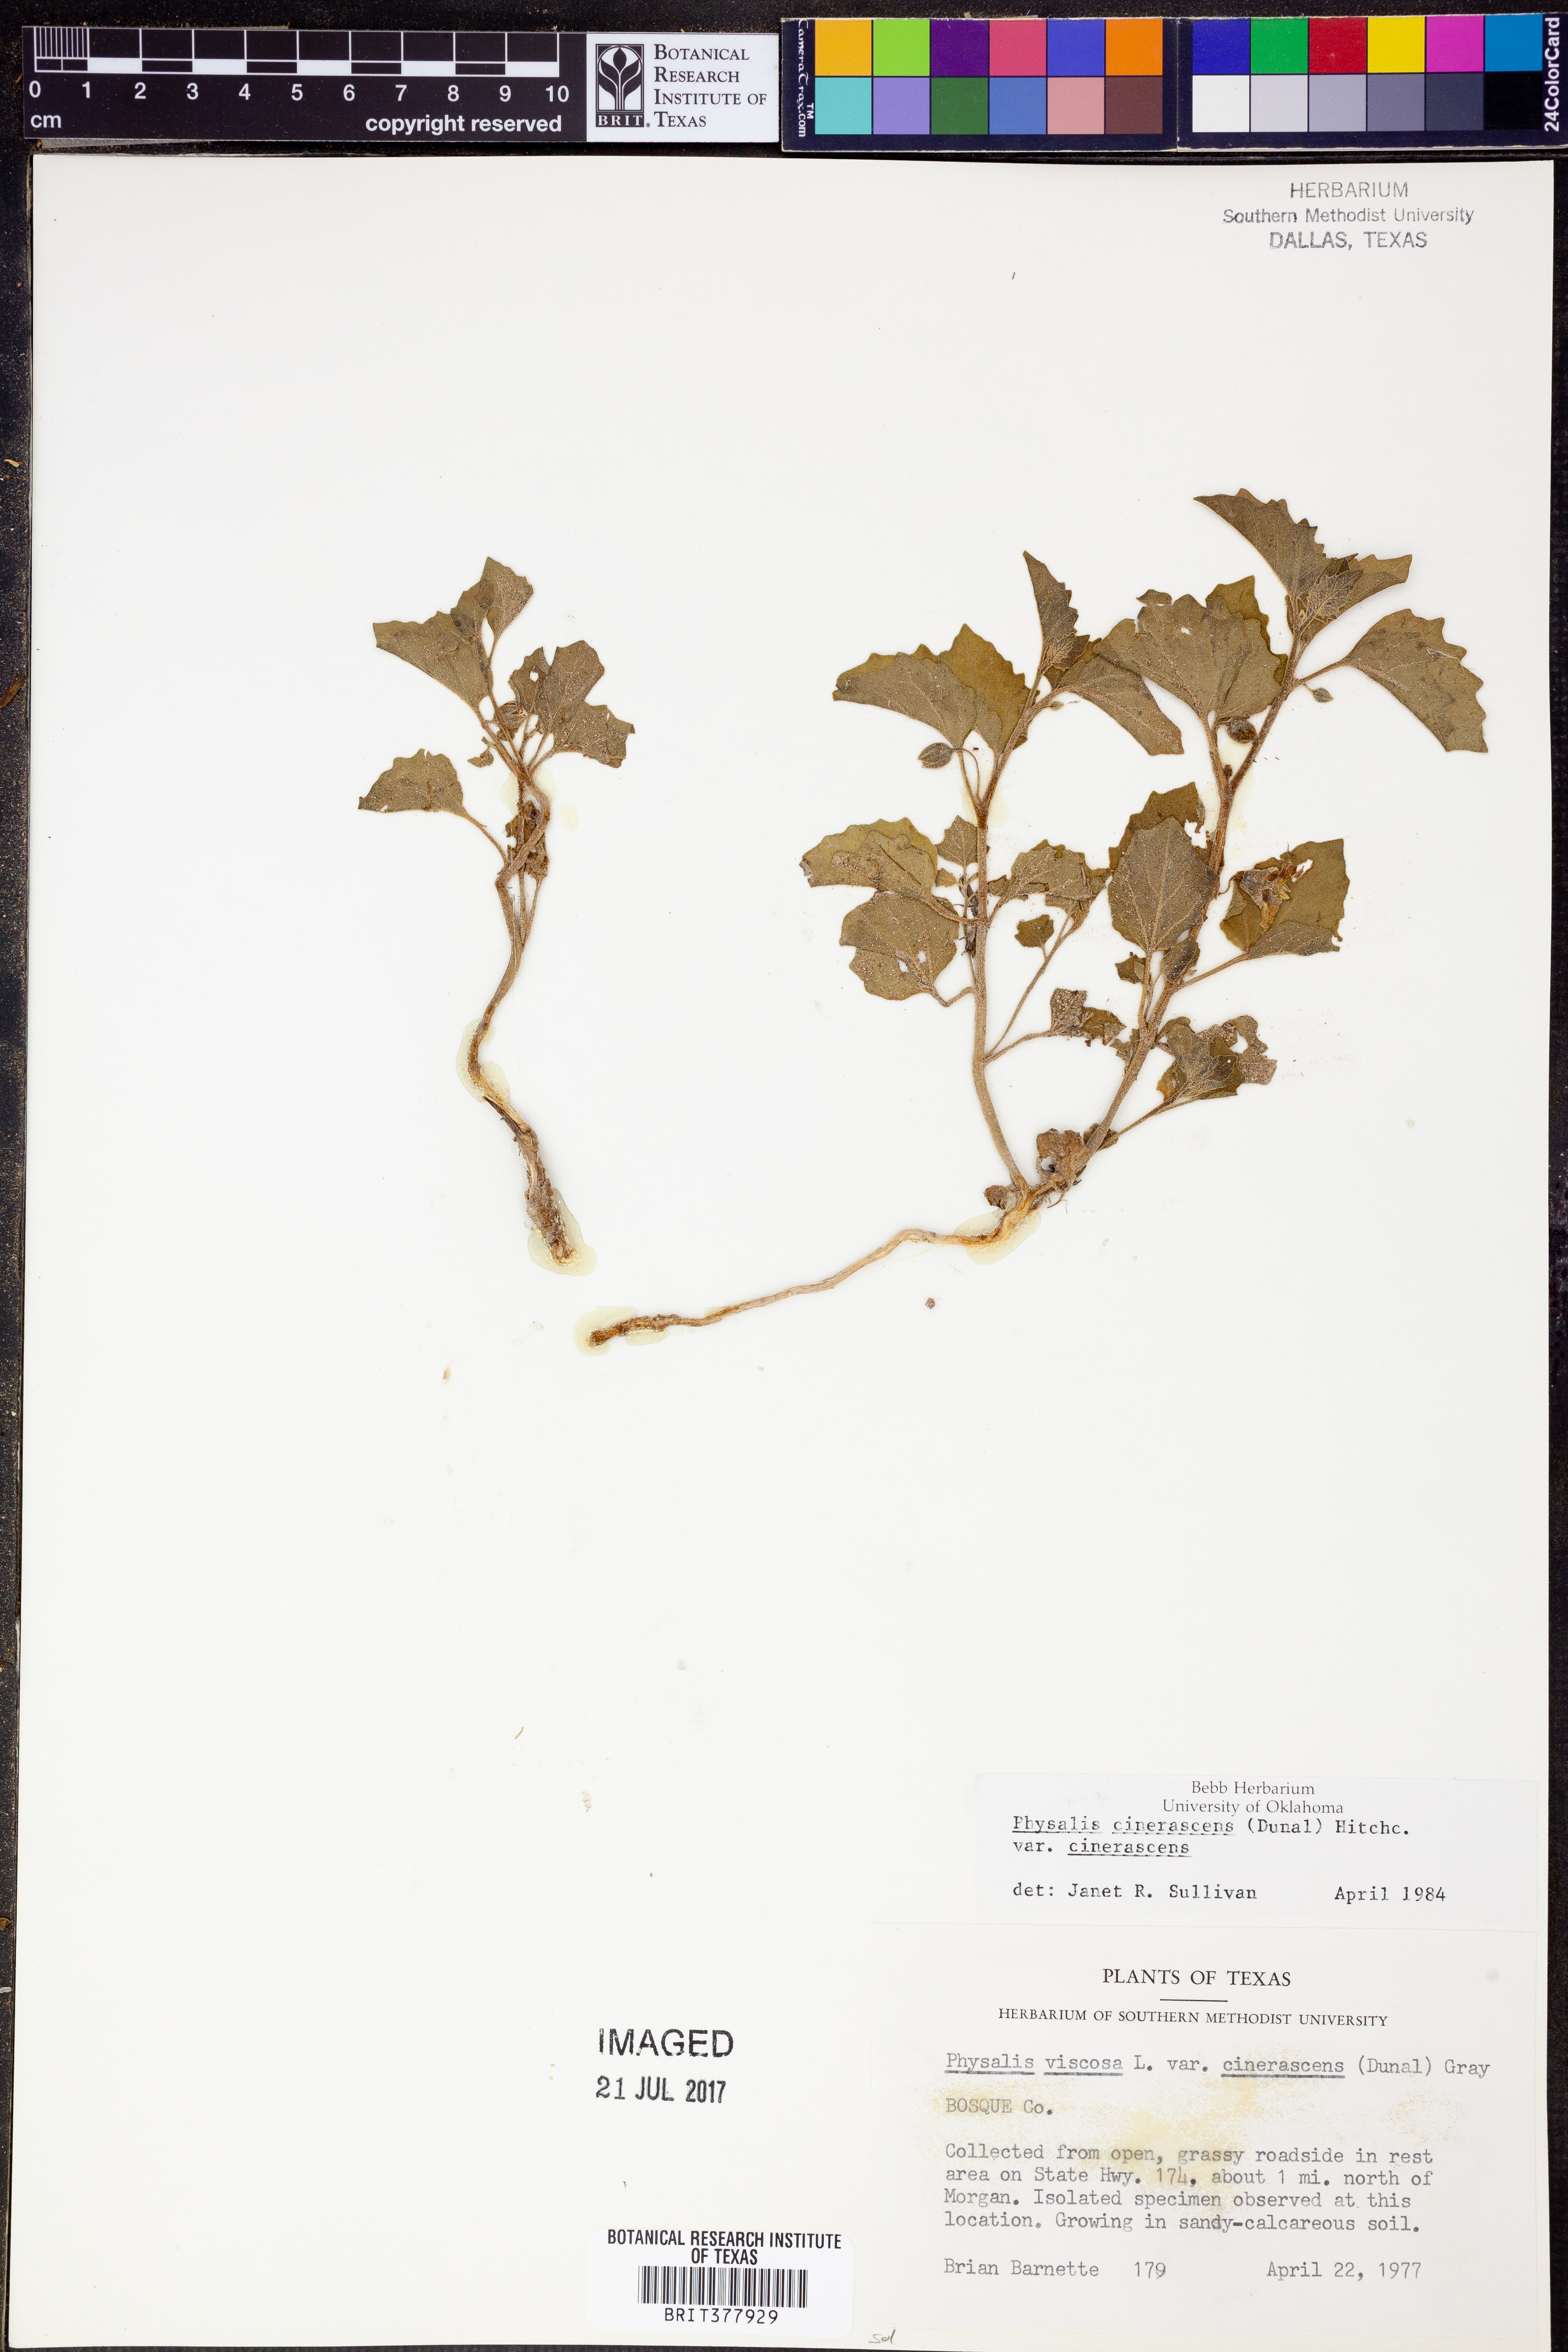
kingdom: Plantae
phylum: Tracheophyta
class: Magnoliopsida
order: Solanales
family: Solanaceae
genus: Physalis
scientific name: Physalis cinerascens
